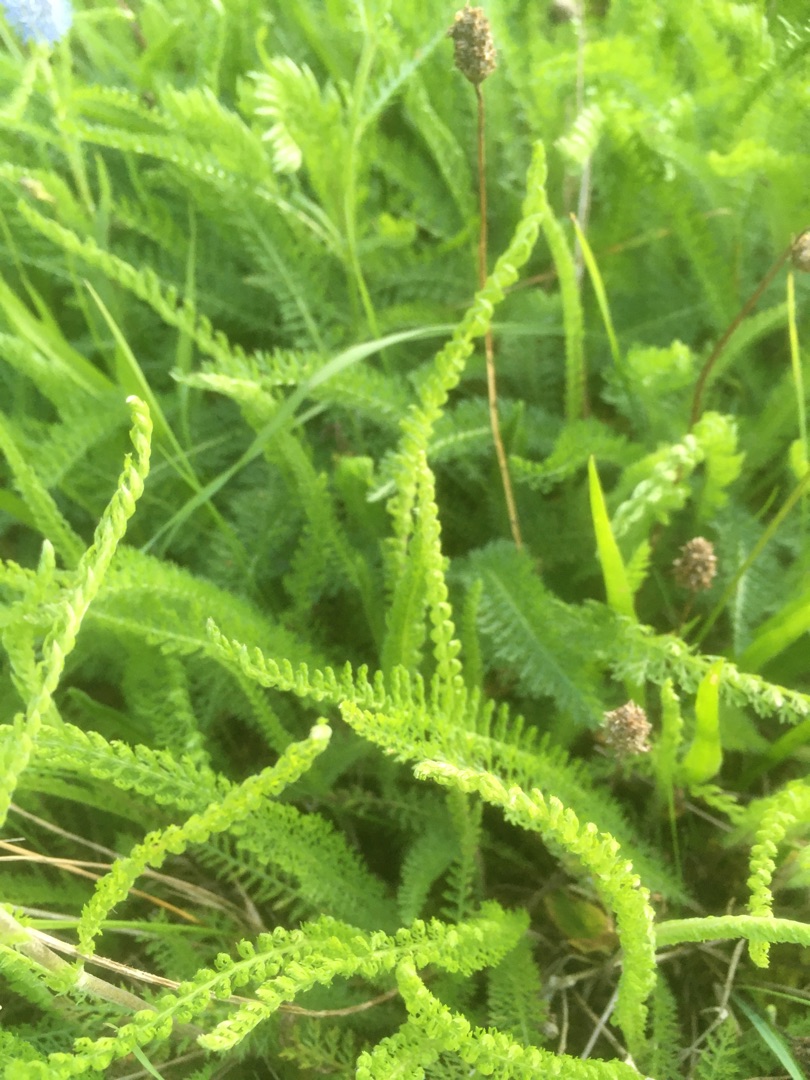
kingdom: Plantae
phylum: Tracheophyta
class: Magnoliopsida
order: Asterales
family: Asteraceae
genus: Achillea
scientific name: Achillea millefolium
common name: Almindelig røllike
